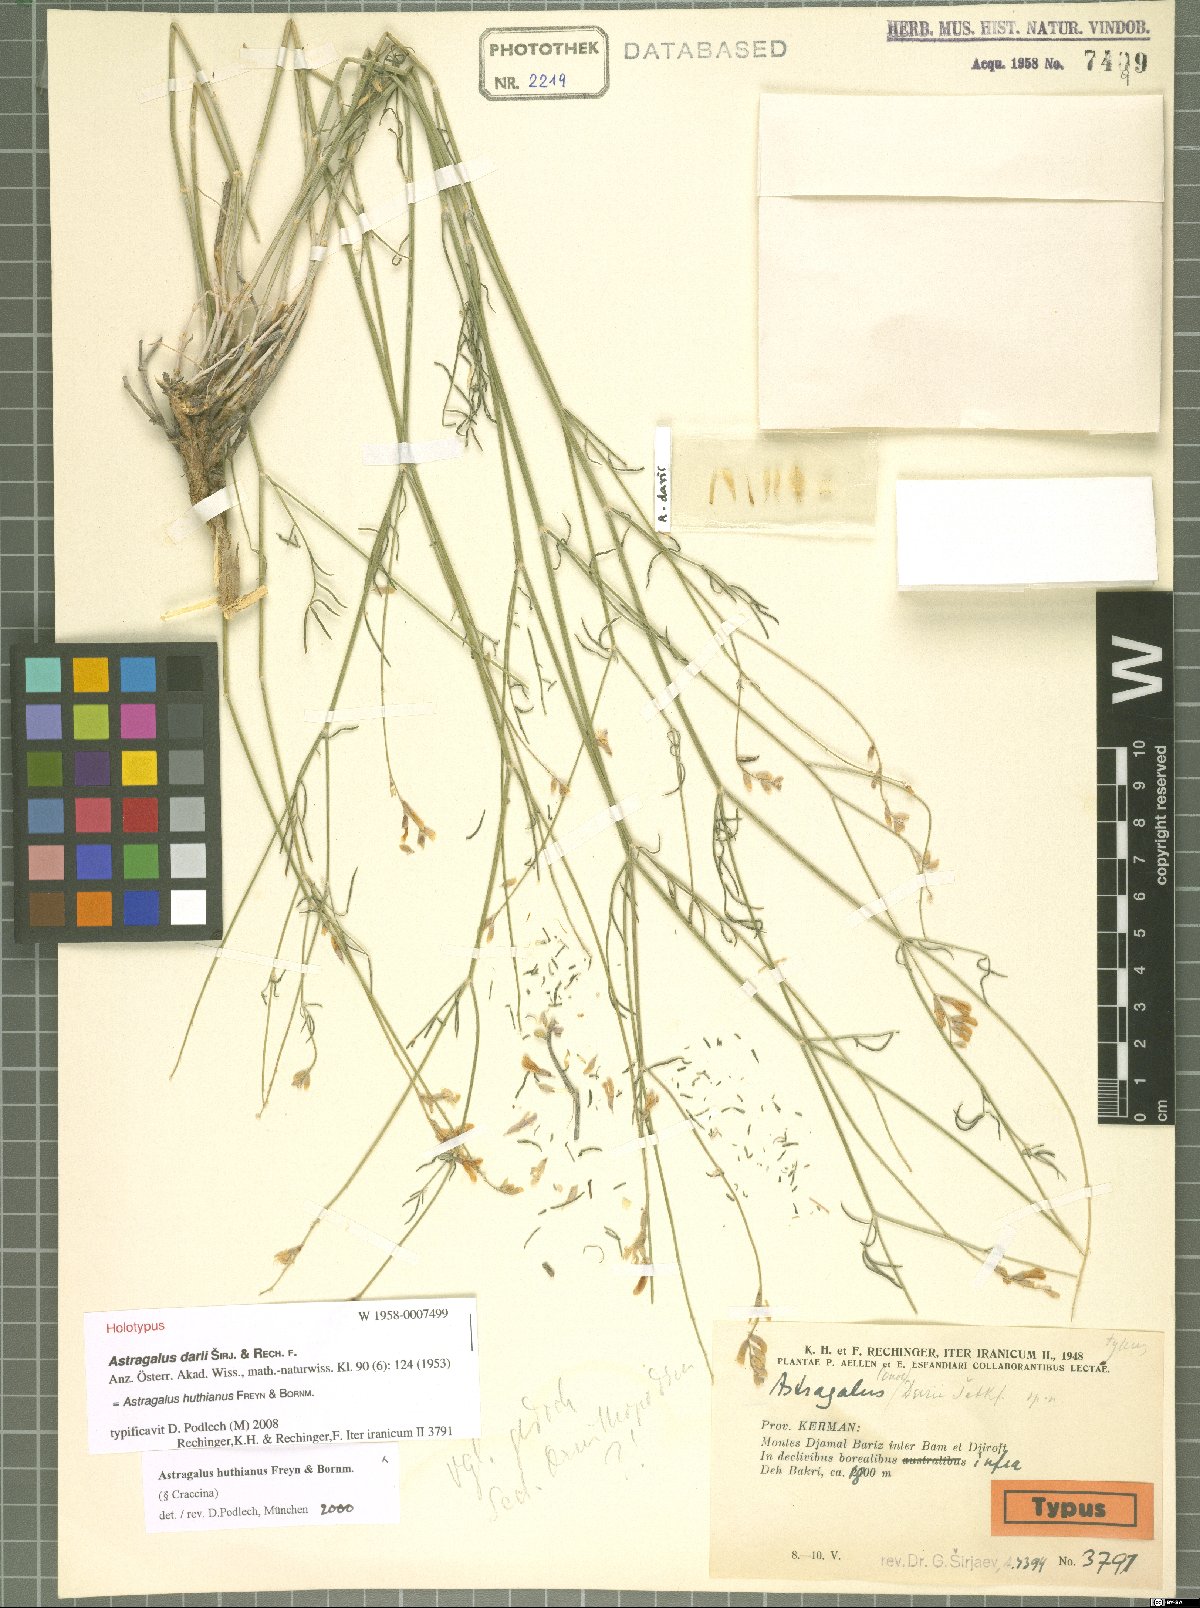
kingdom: Plantae
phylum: Tracheophyta
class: Magnoliopsida
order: Fabales
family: Fabaceae
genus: Astragalus
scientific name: Astragalus huthianus
